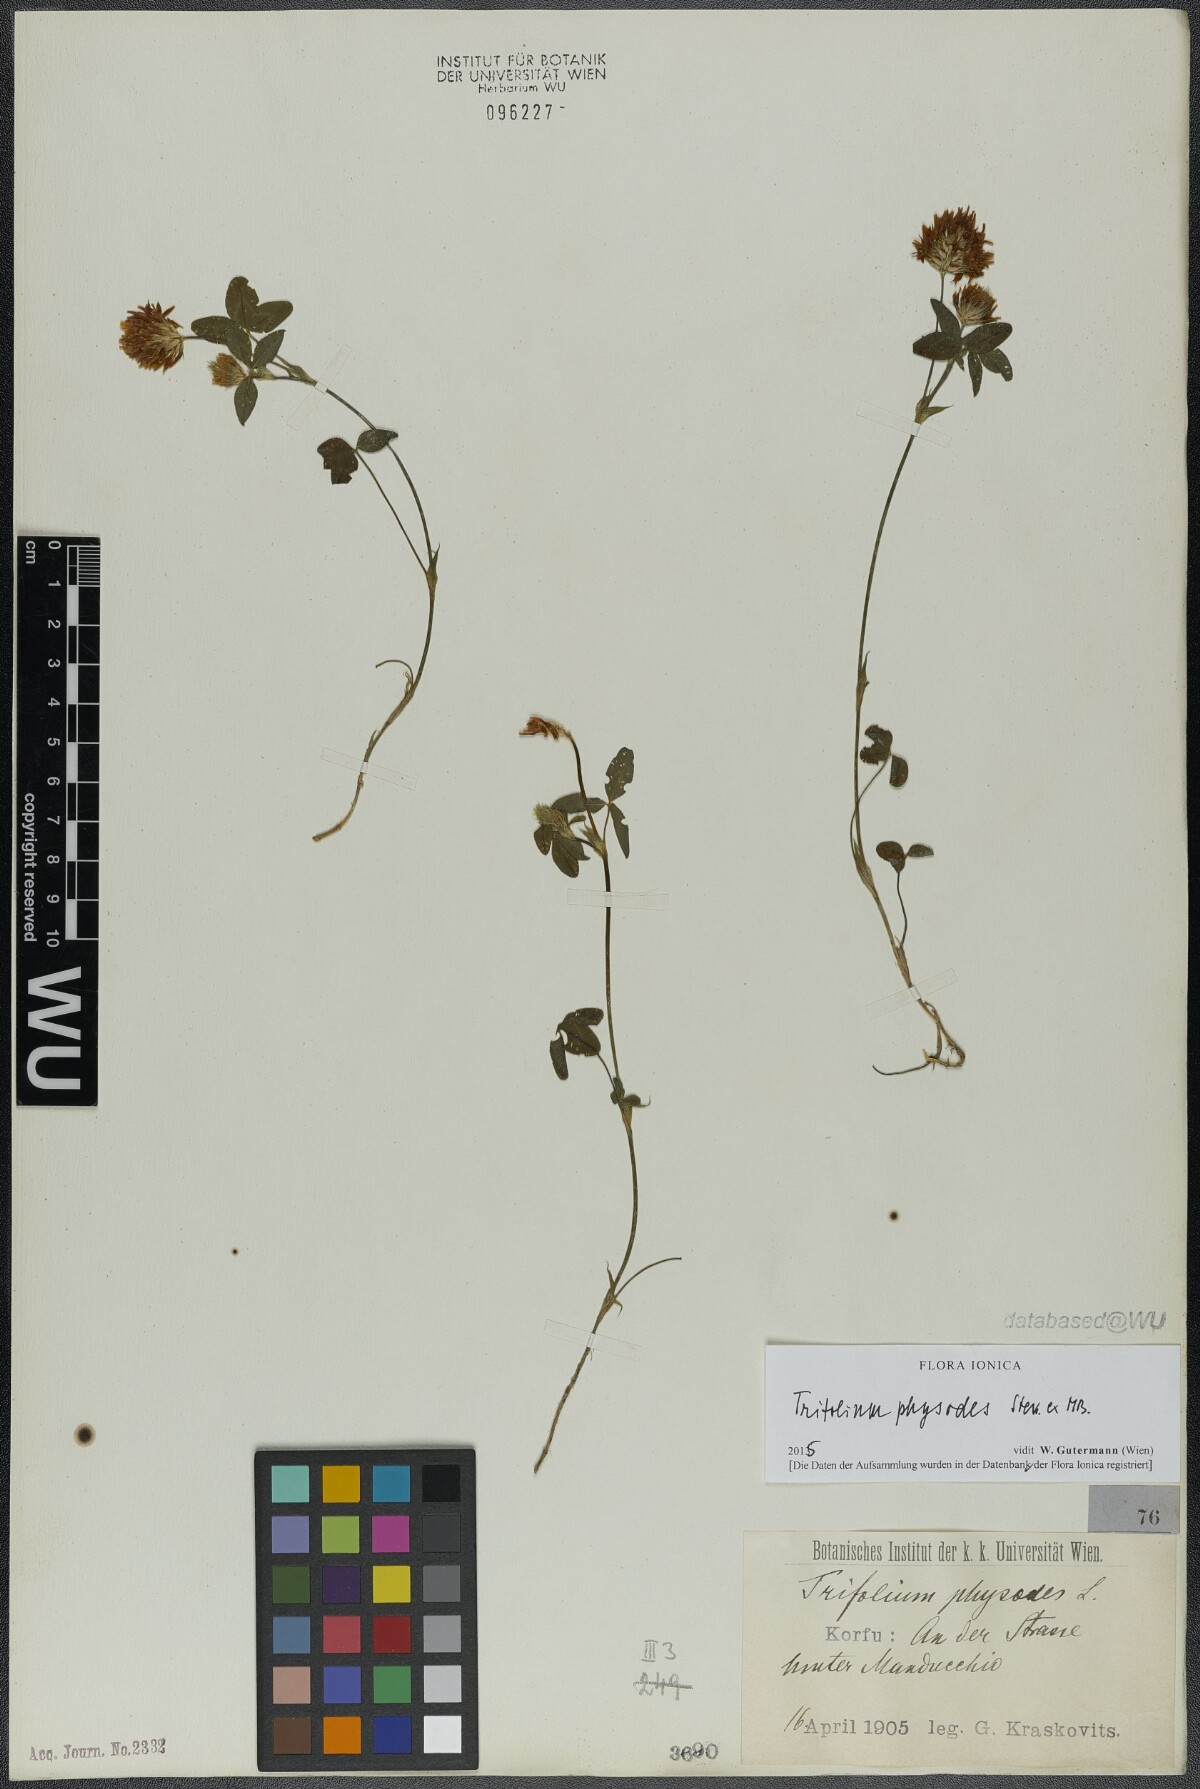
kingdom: Plantae
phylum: Tracheophyta
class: Magnoliopsida
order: Fabales
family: Fabaceae
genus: Trifolium
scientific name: Trifolium physodes
